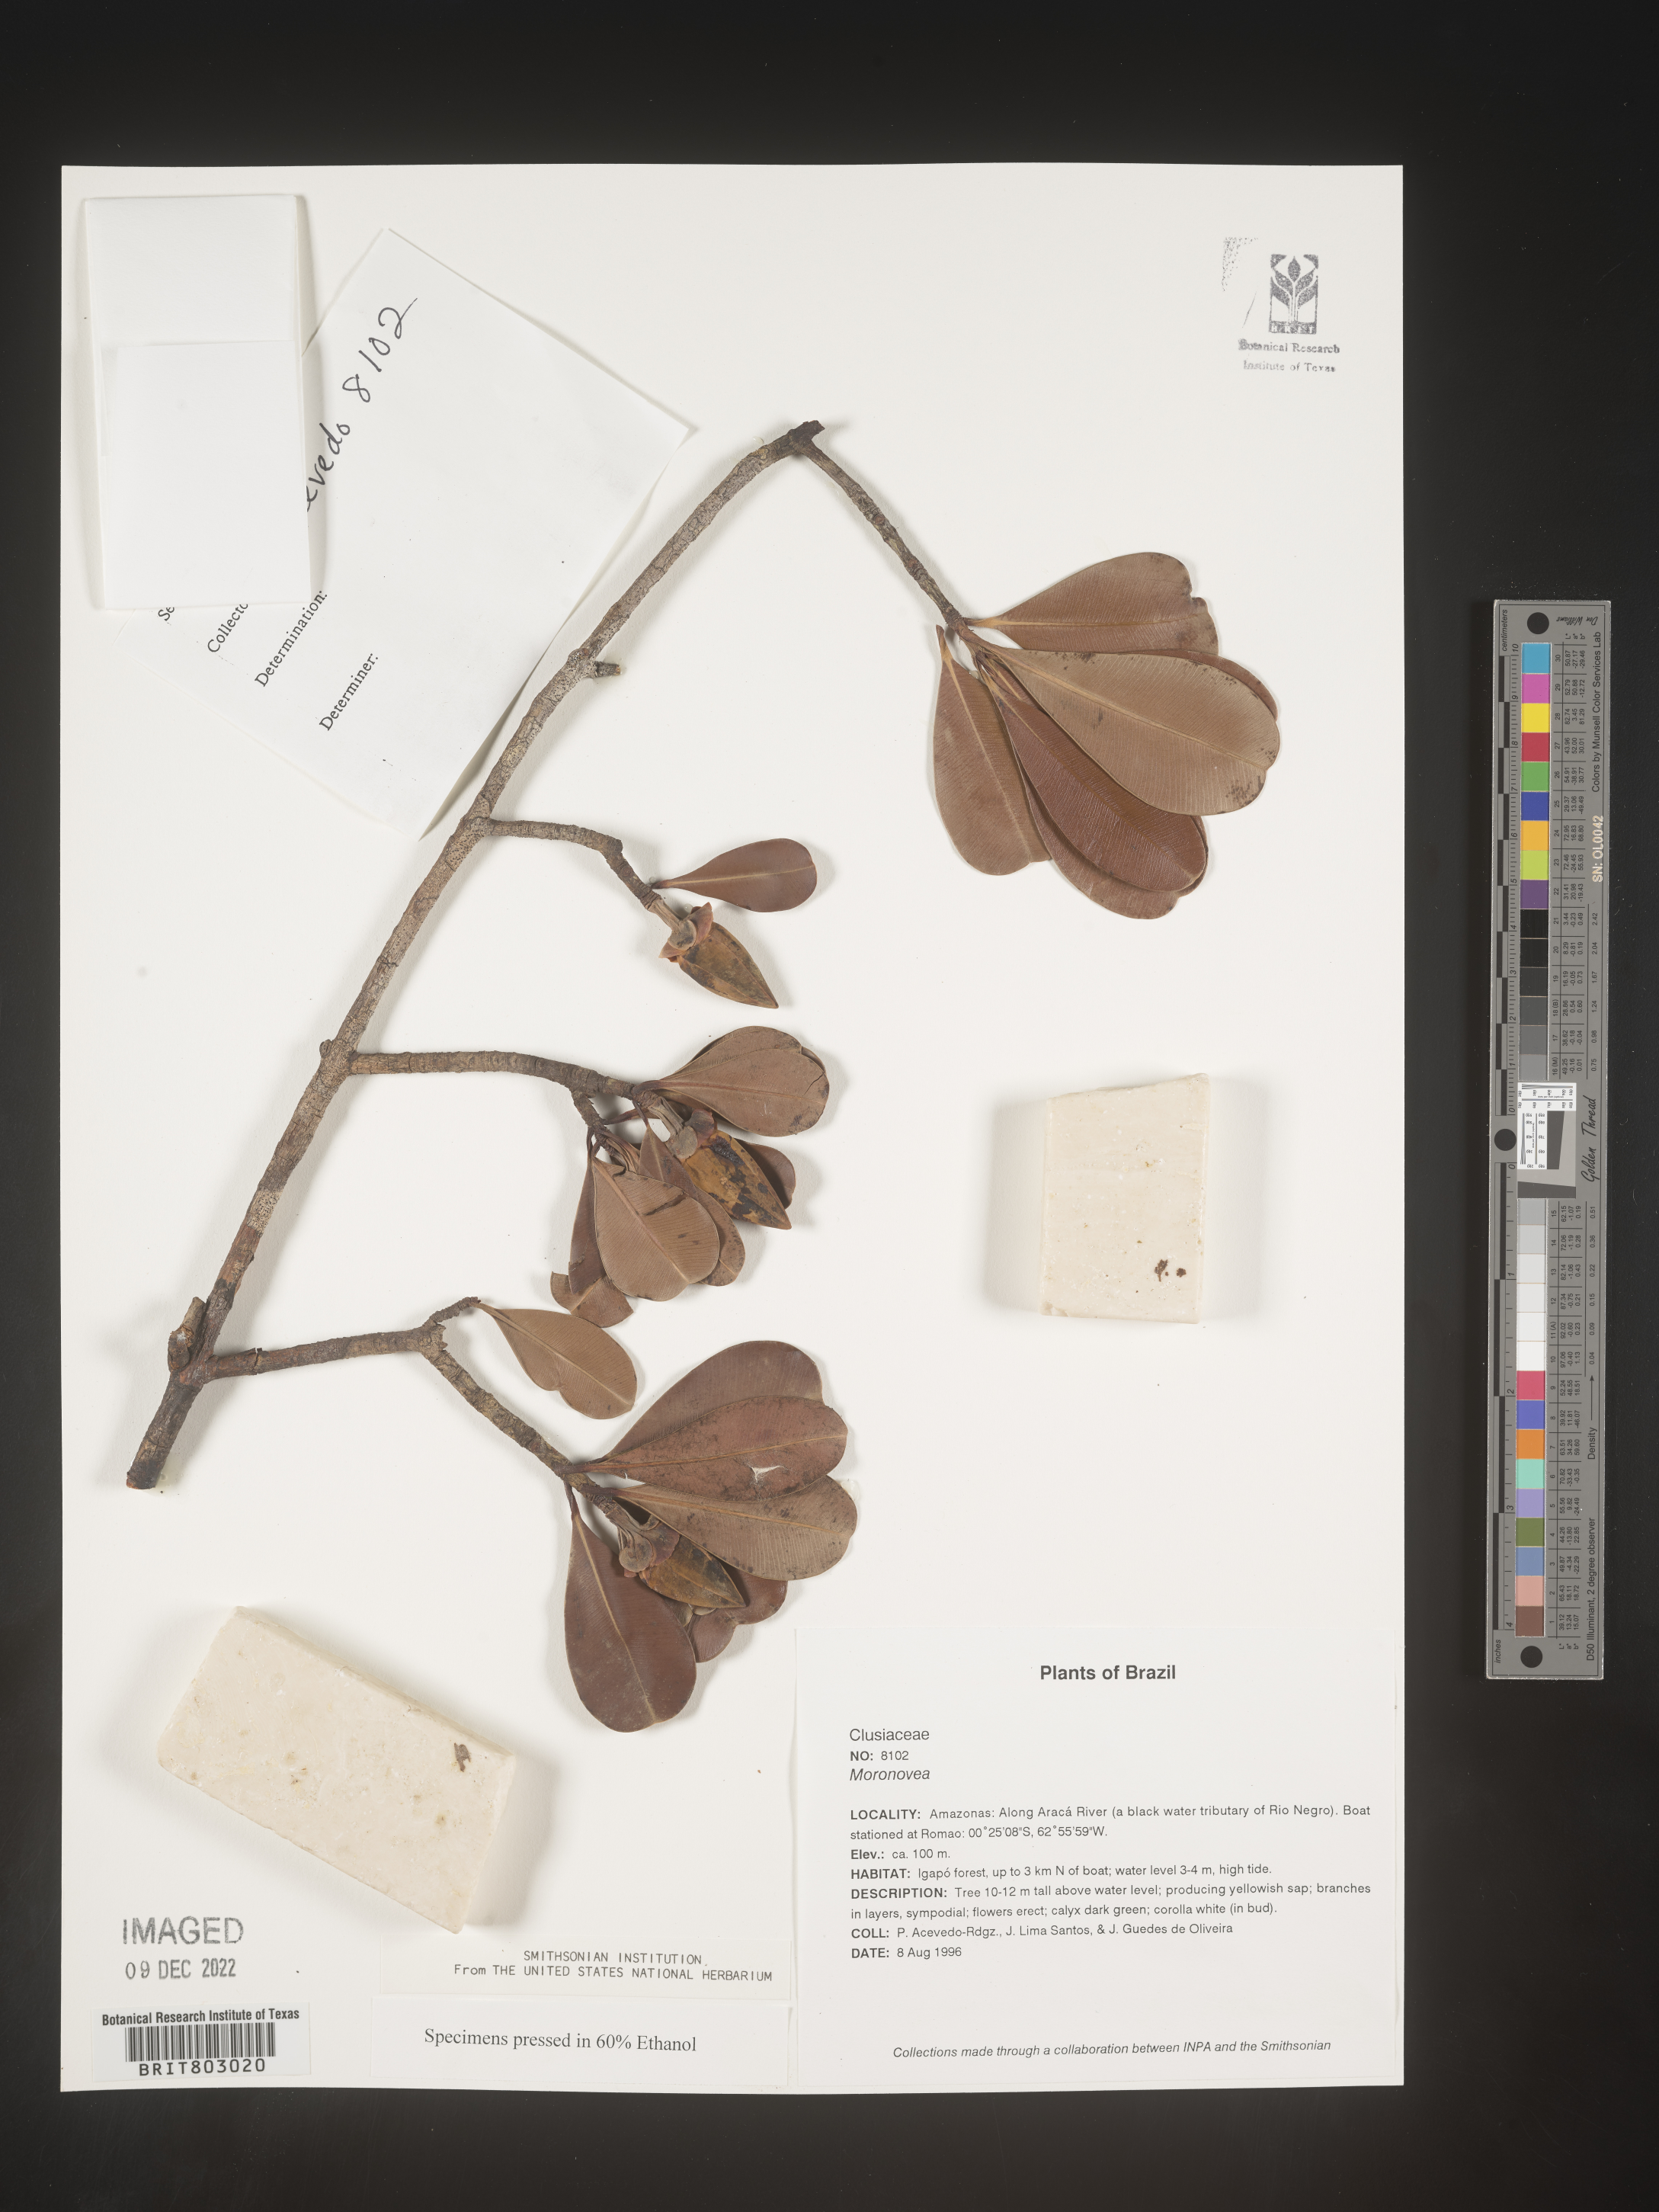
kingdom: Plantae
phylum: Tracheophyta
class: Magnoliopsida
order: Malpighiales
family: Clusiaceae
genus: Moronobea
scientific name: Moronobea
